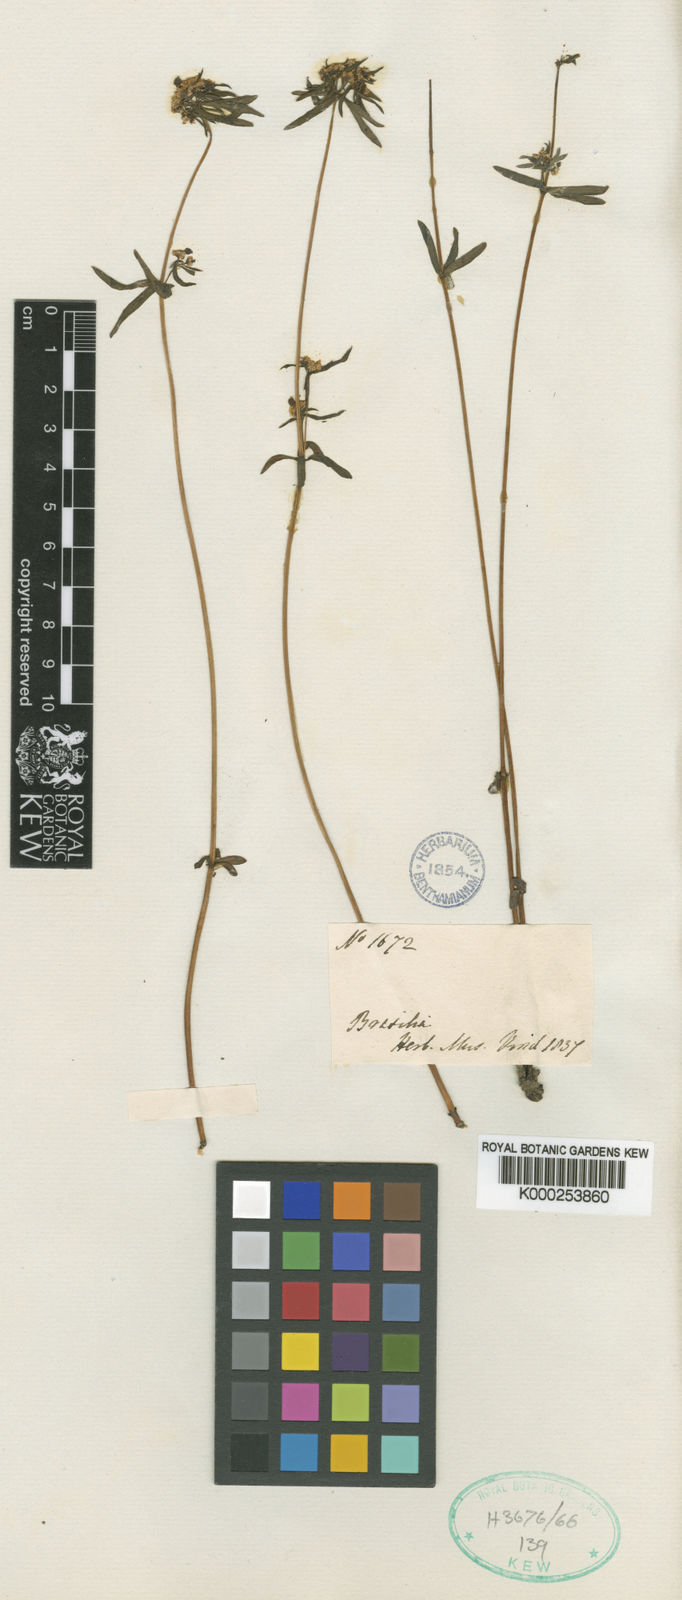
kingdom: Plantae
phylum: Tracheophyta
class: Magnoliopsida
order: Malpighiales
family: Euphorbiaceae
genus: Euphorbia
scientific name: Euphorbia potentilloides
